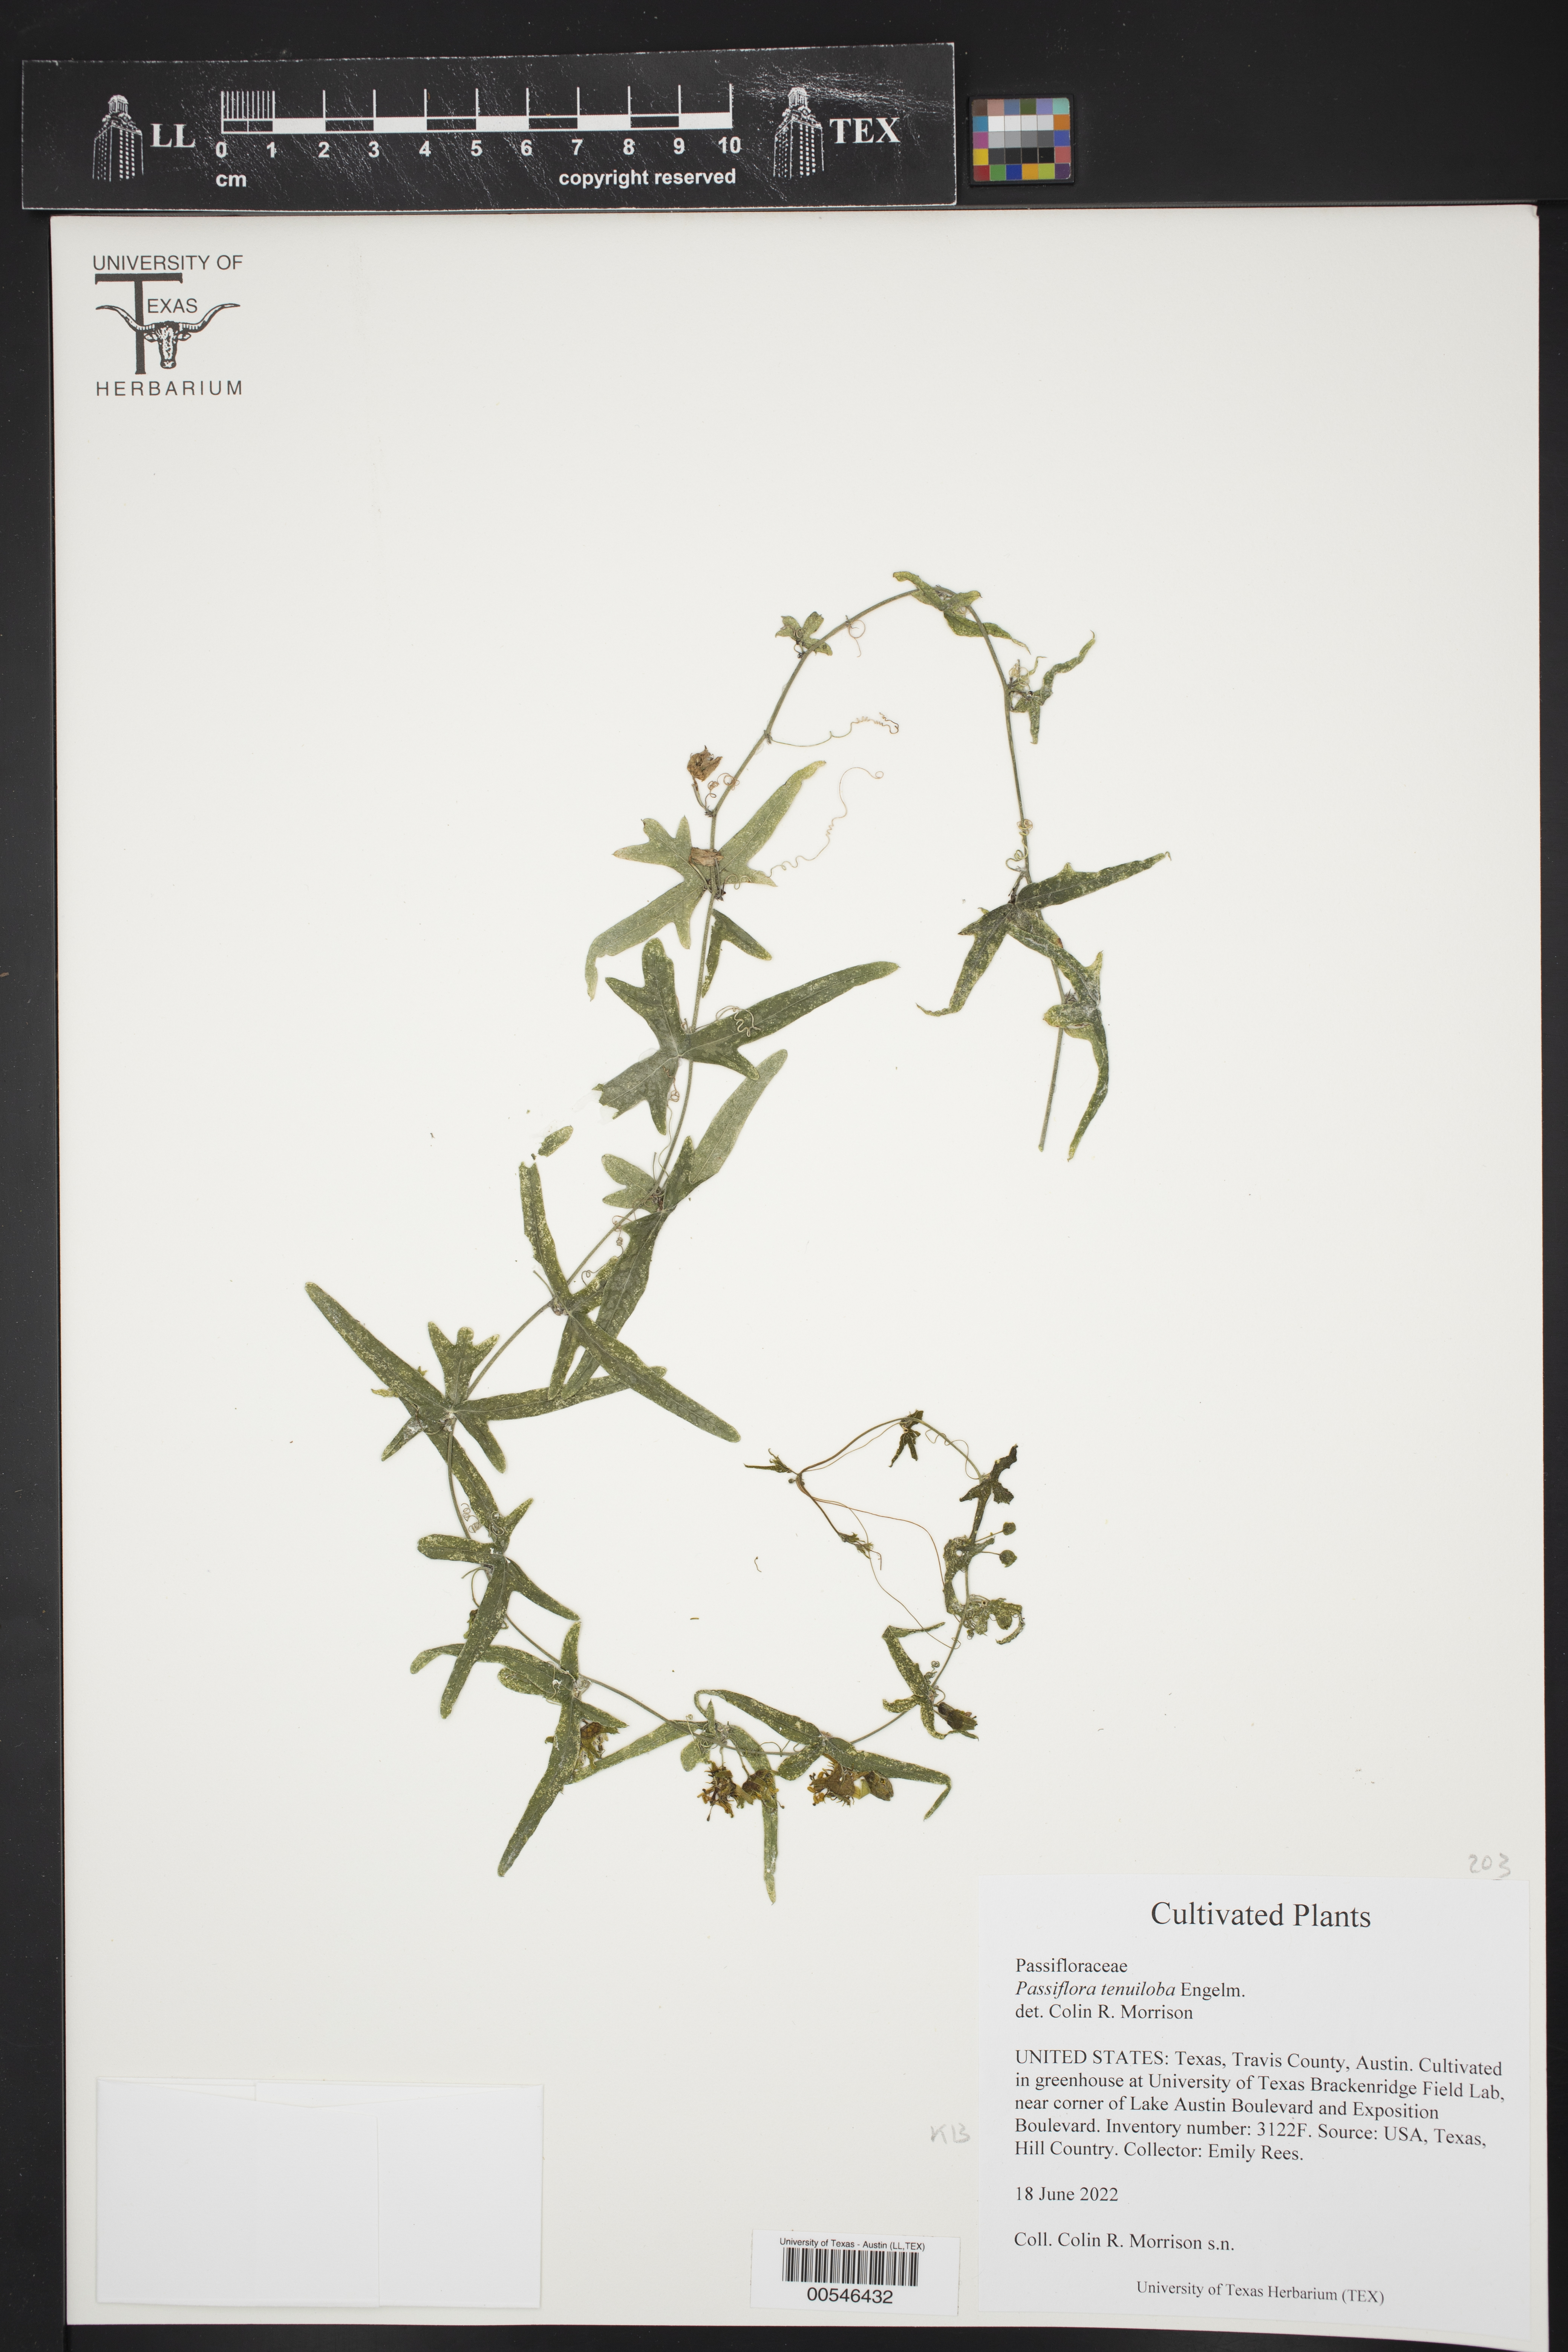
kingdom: Plantae
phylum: Tracheophyta
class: Magnoliopsida
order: Malpighiales
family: Passifloraceae
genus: Passiflora
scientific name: Passiflora tenuiloba
